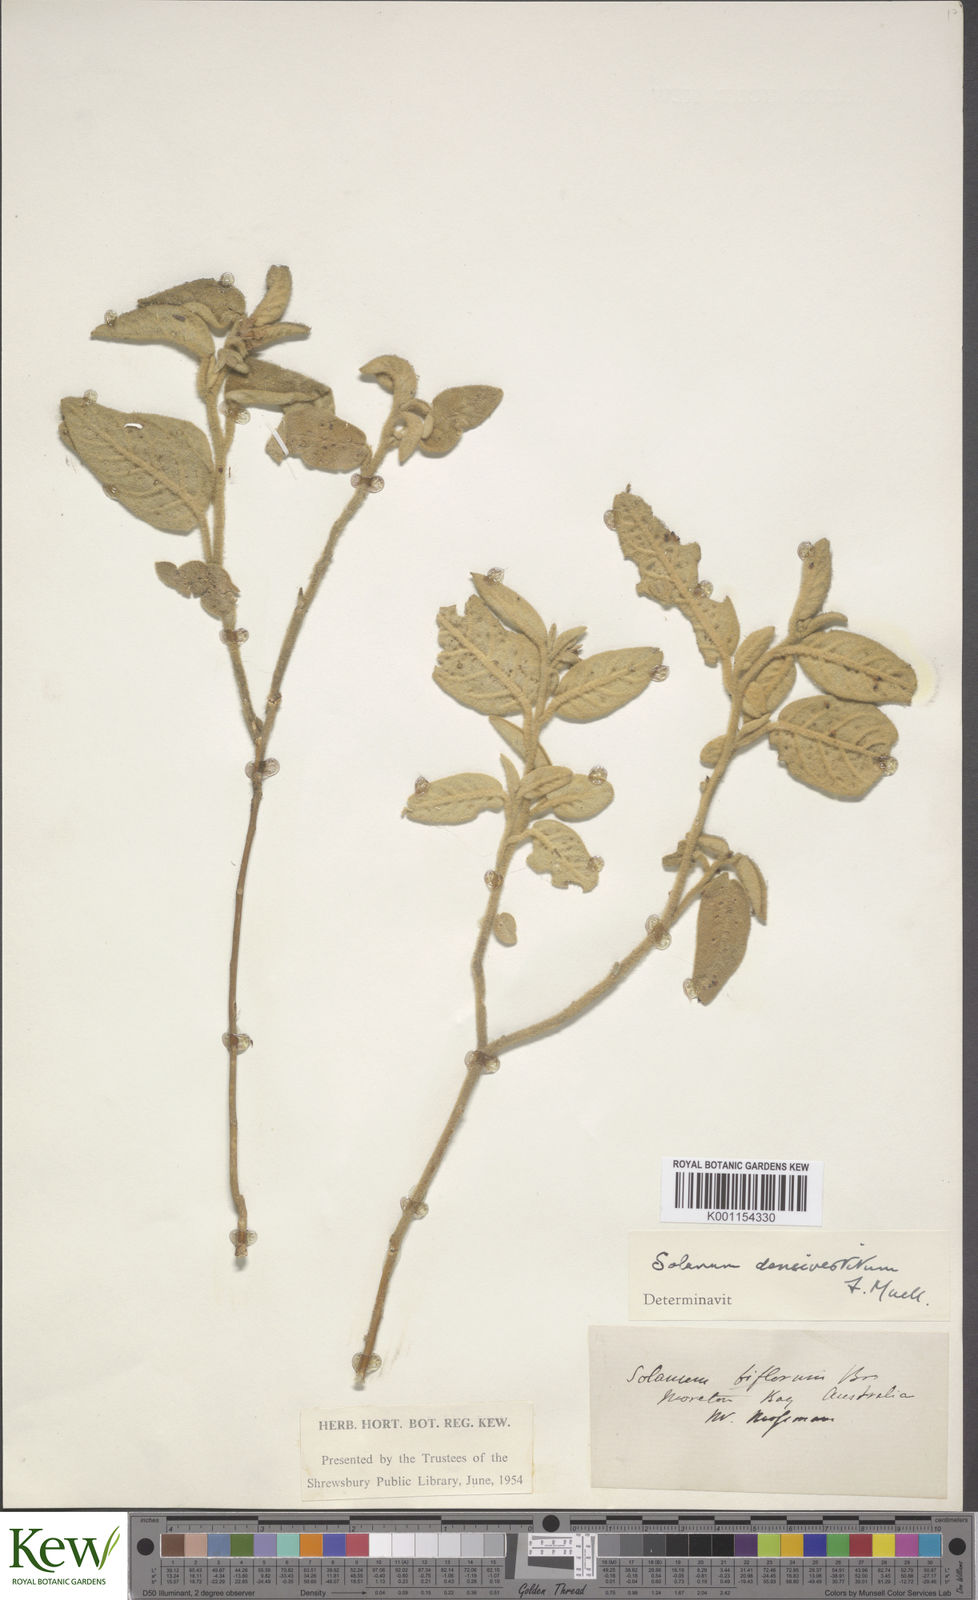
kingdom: Plantae
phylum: Tracheophyta
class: Magnoliopsida
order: Solanales
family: Solanaceae
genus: Solanum
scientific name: Solanum densevestitum
